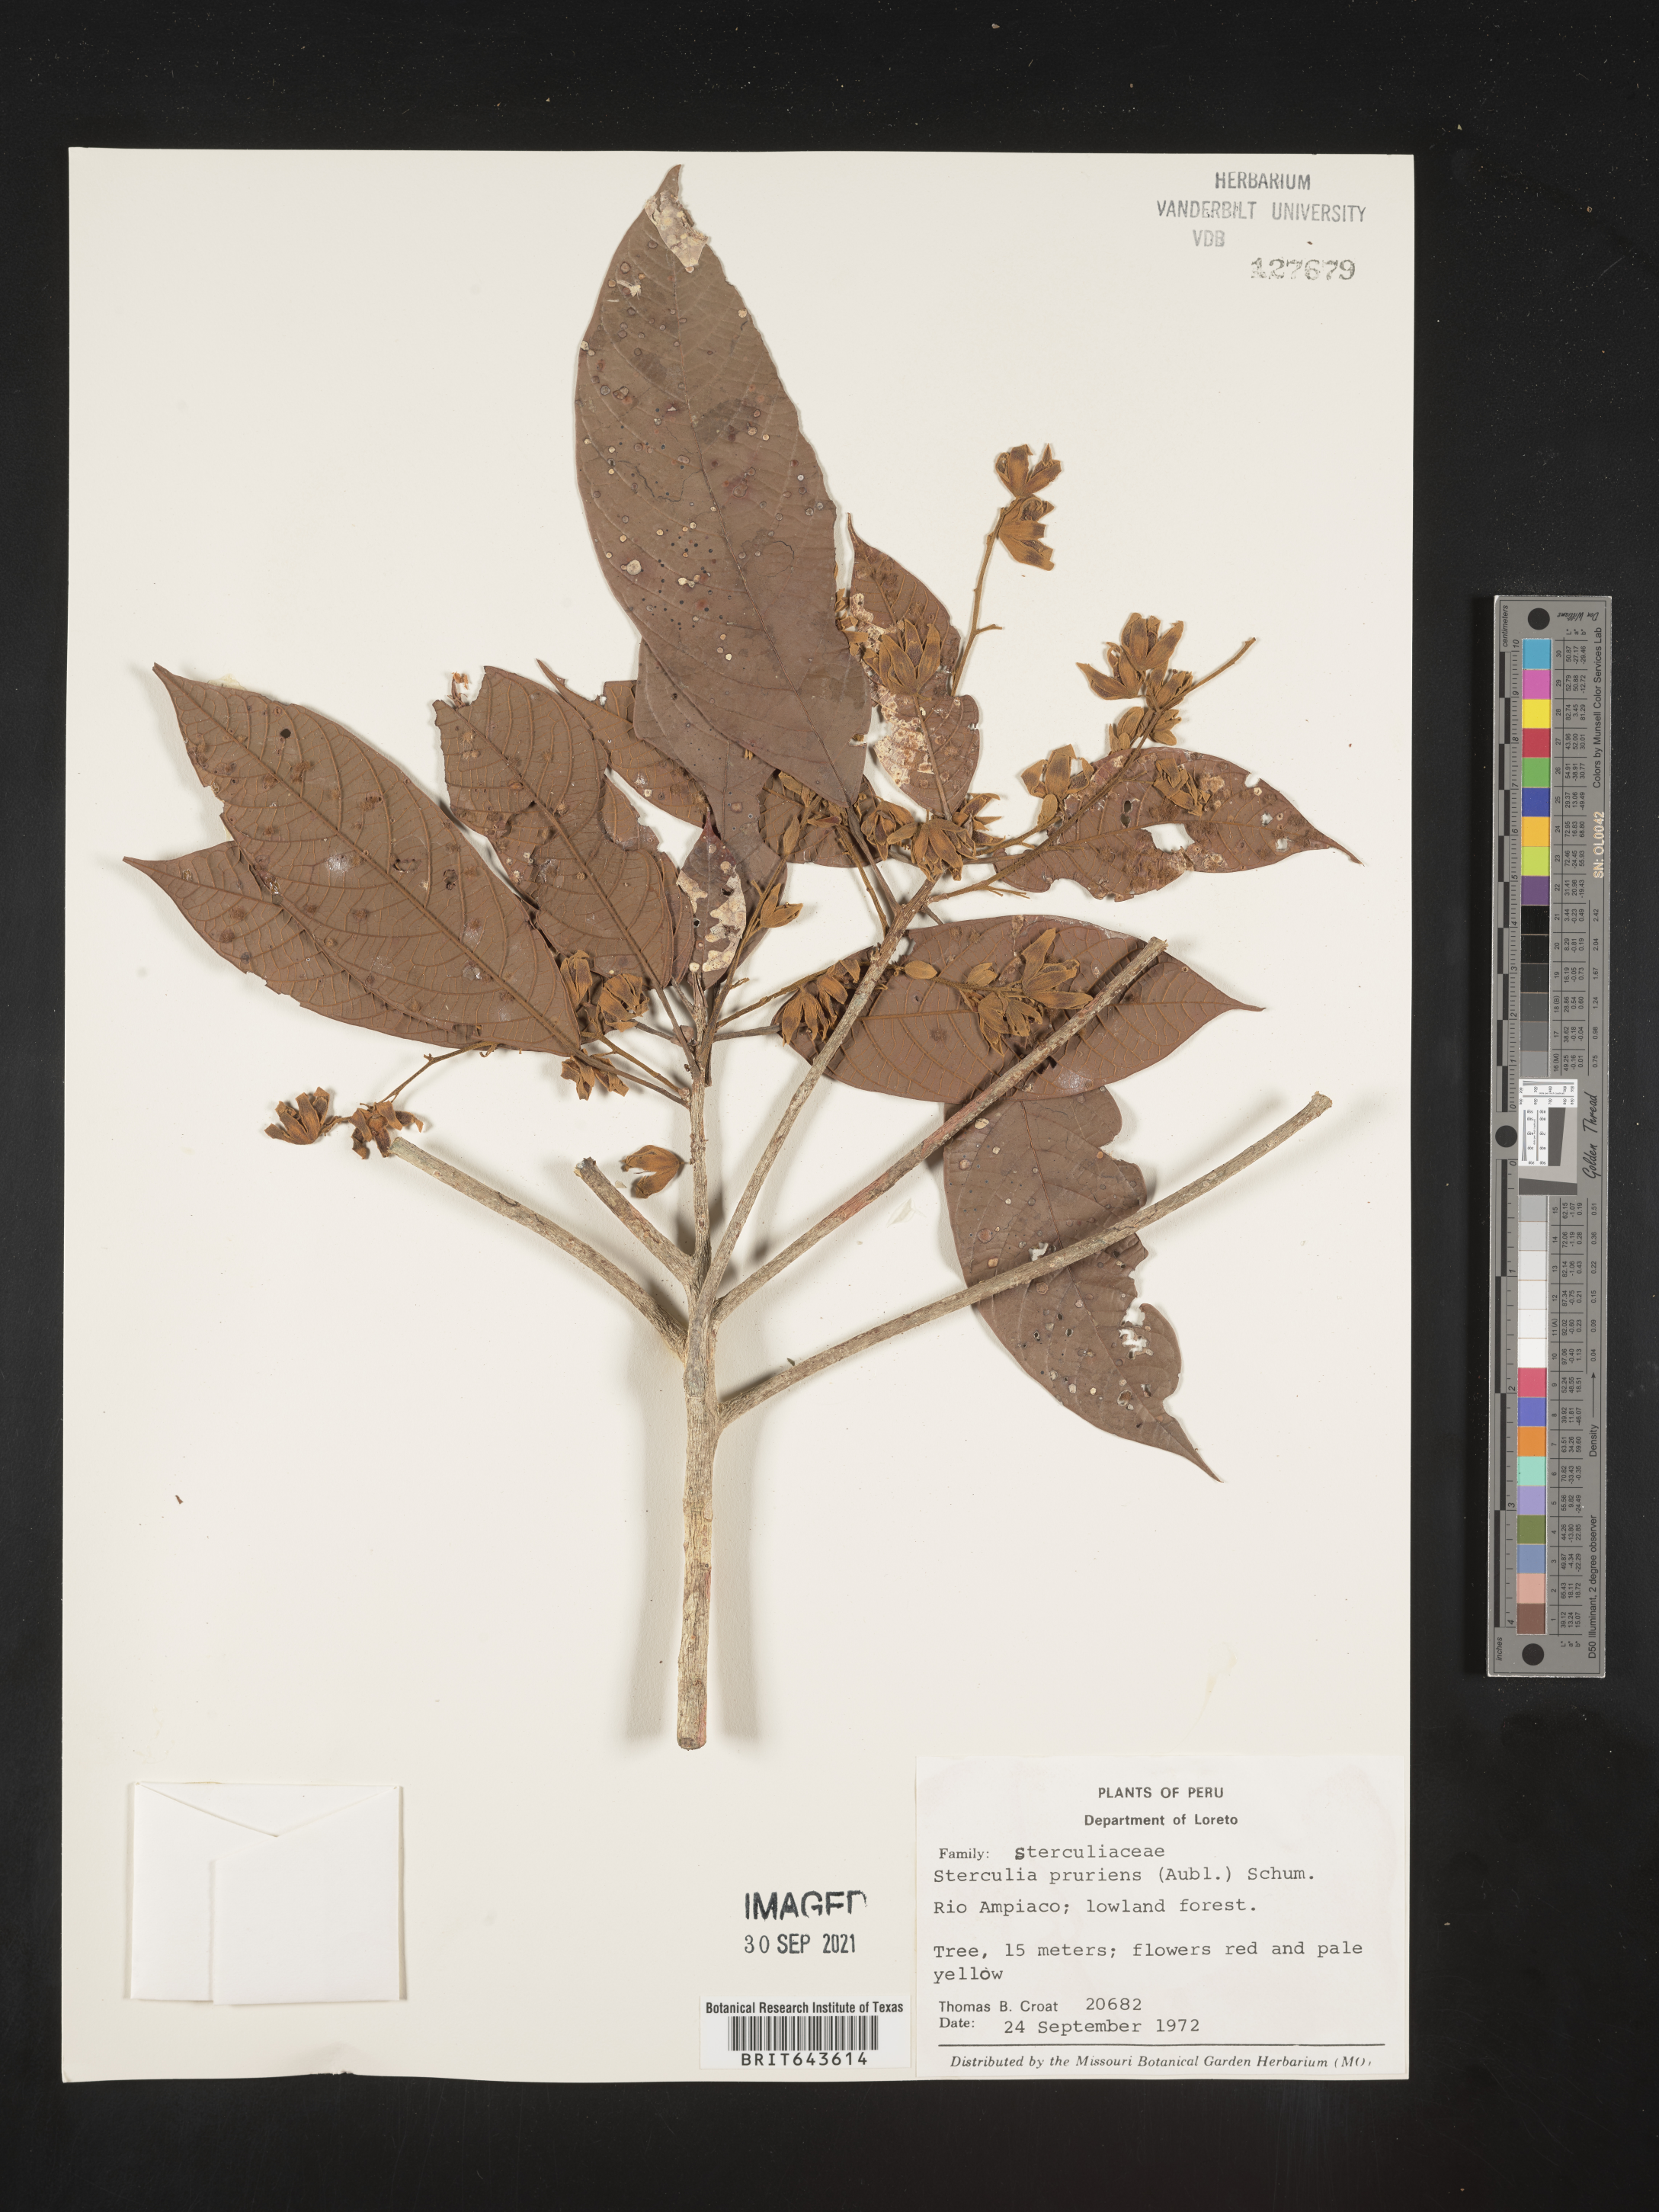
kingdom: Plantae
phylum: Tracheophyta
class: Magnoliopsida
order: Malvales
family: Malvaceae
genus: Sterculia
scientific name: Sterculia
